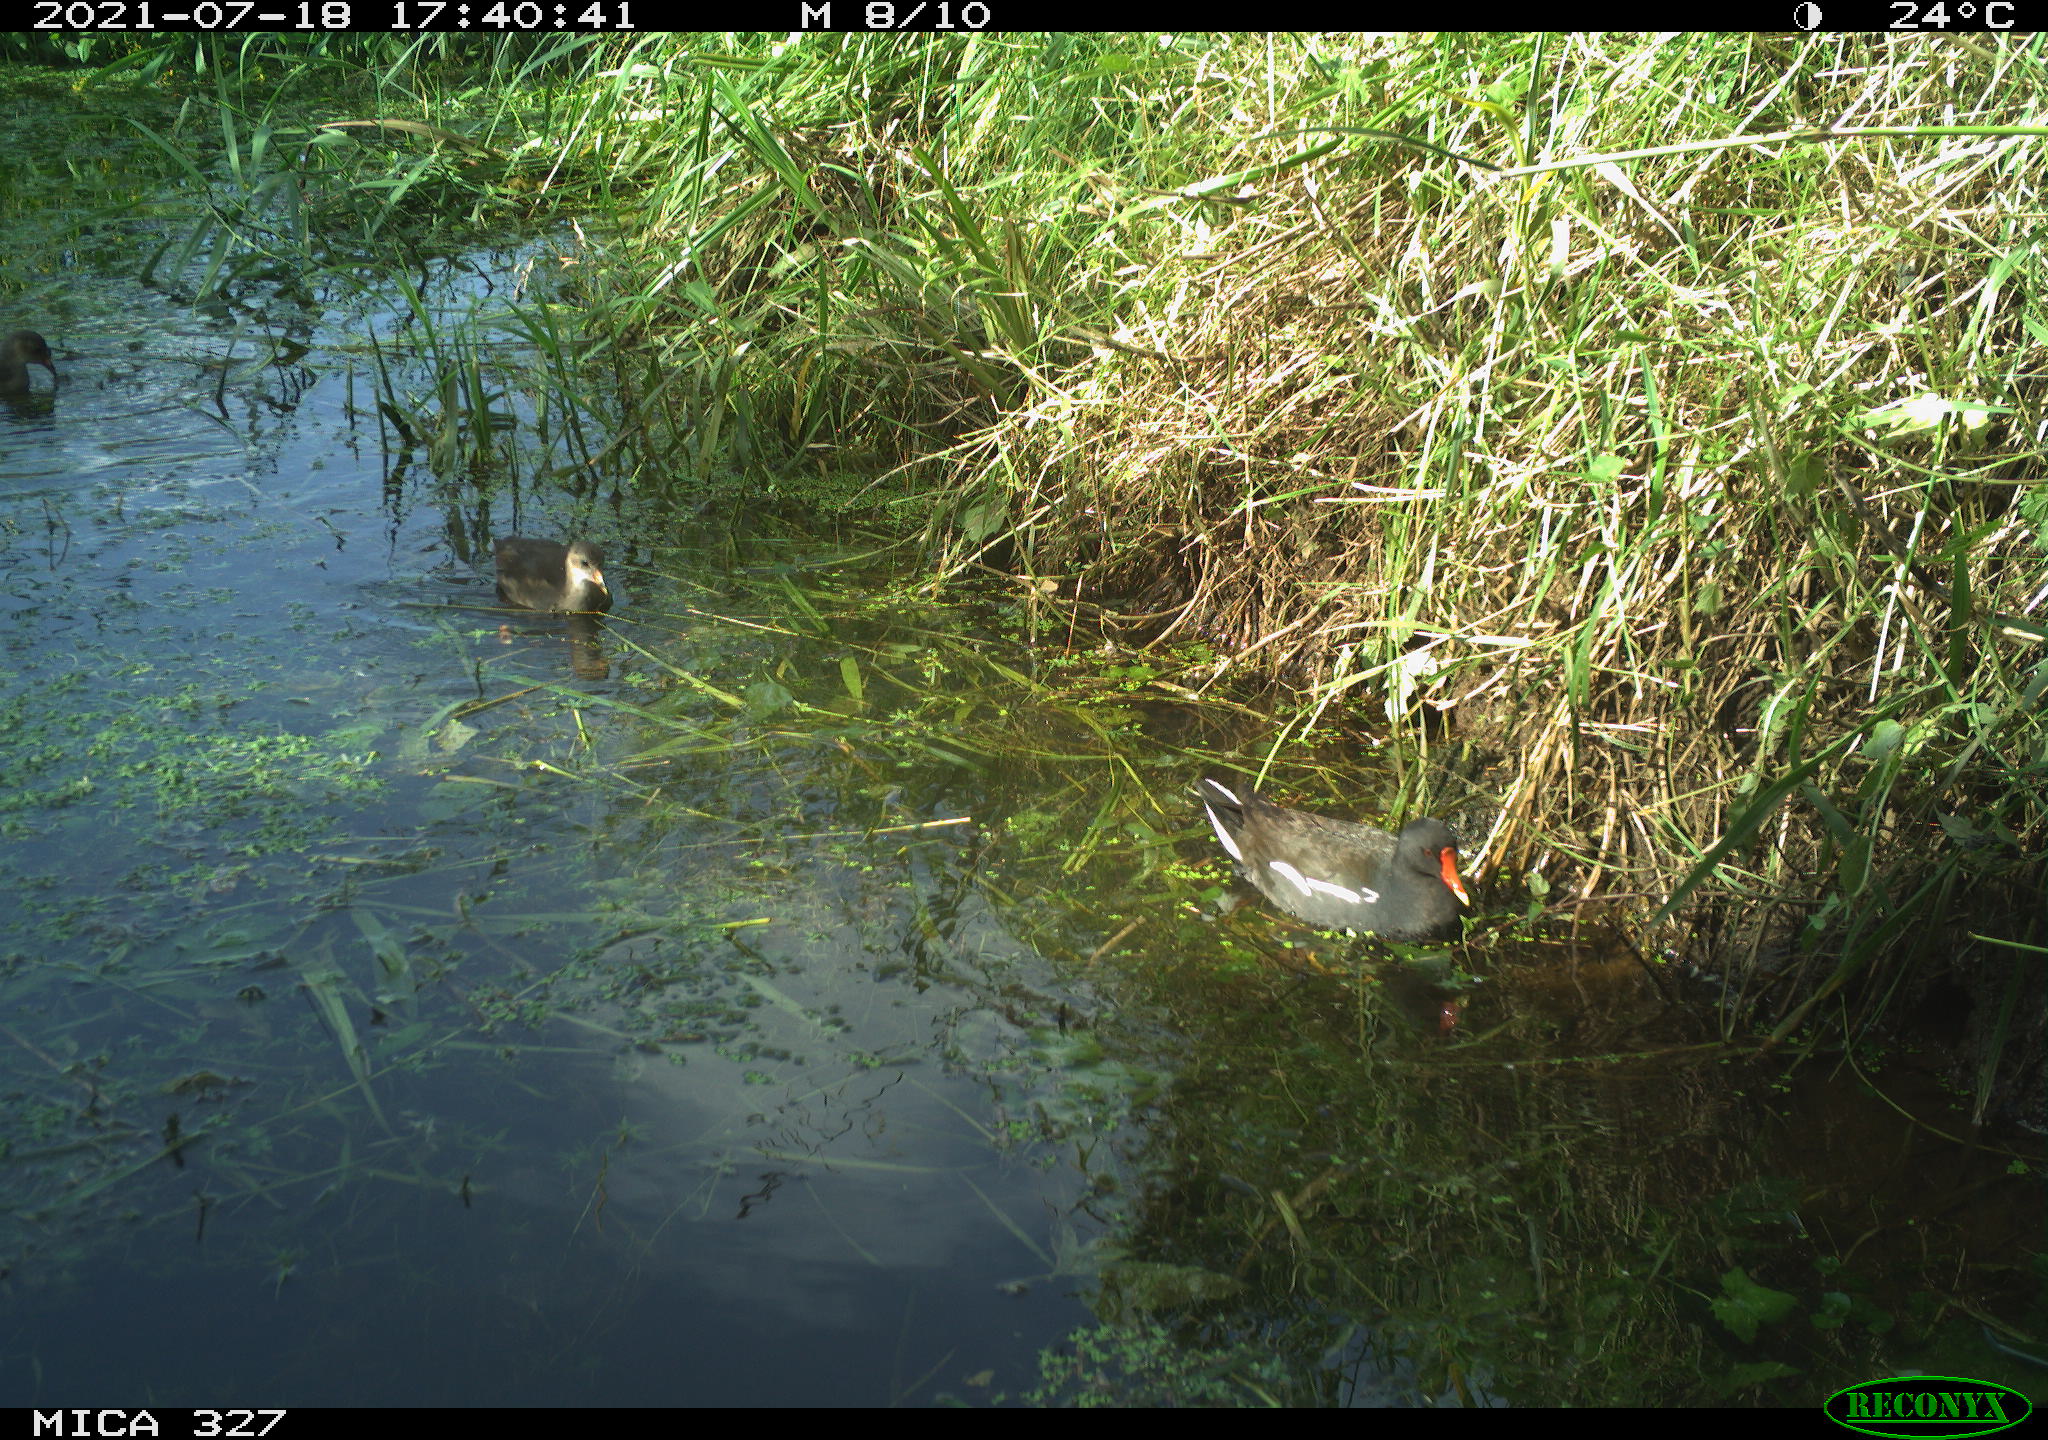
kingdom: Animalia
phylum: Chordata
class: Aves
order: Gruiformes
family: Rallidae
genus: Gallinula
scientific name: Gallinula chloropus
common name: Common moorhen
